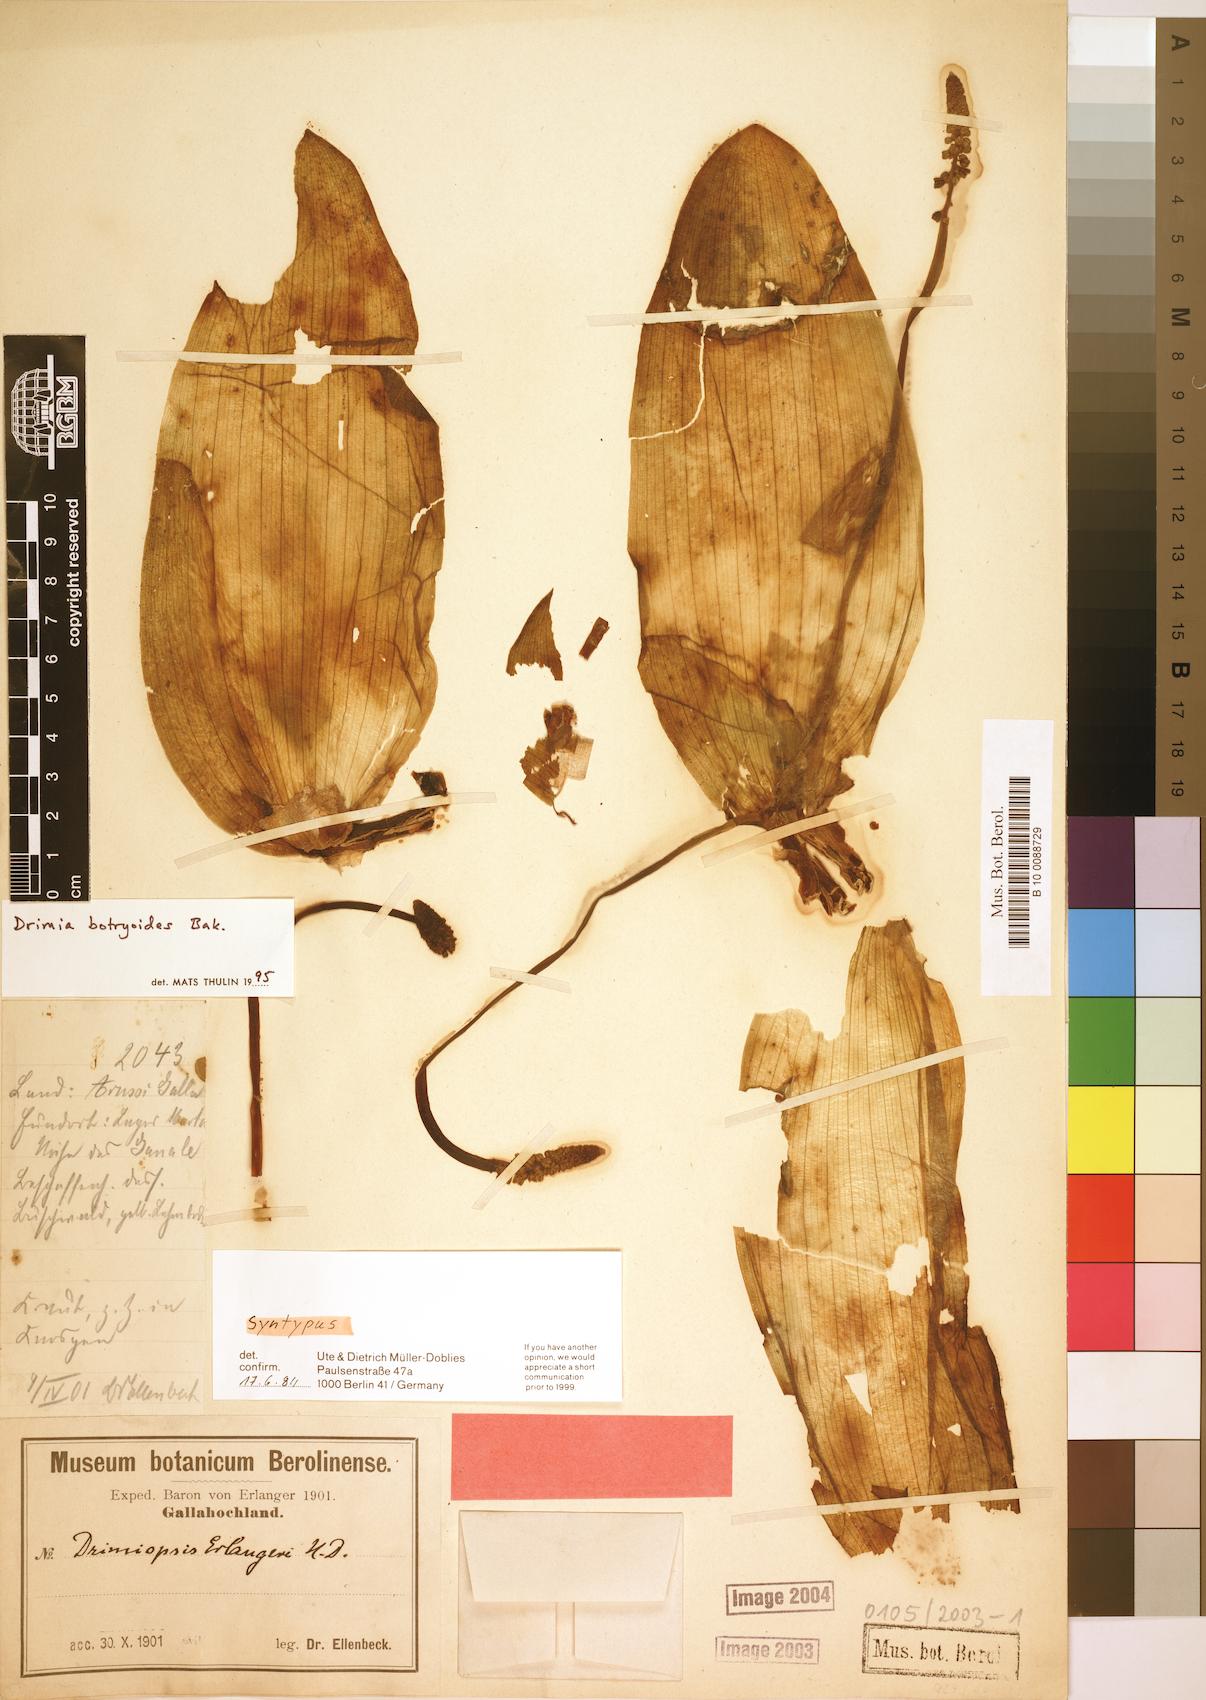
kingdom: Plantae
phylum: Tracheophyta
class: Liliopsida
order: Asparagales
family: Asparagaceae
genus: Drimia
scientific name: Drimia
